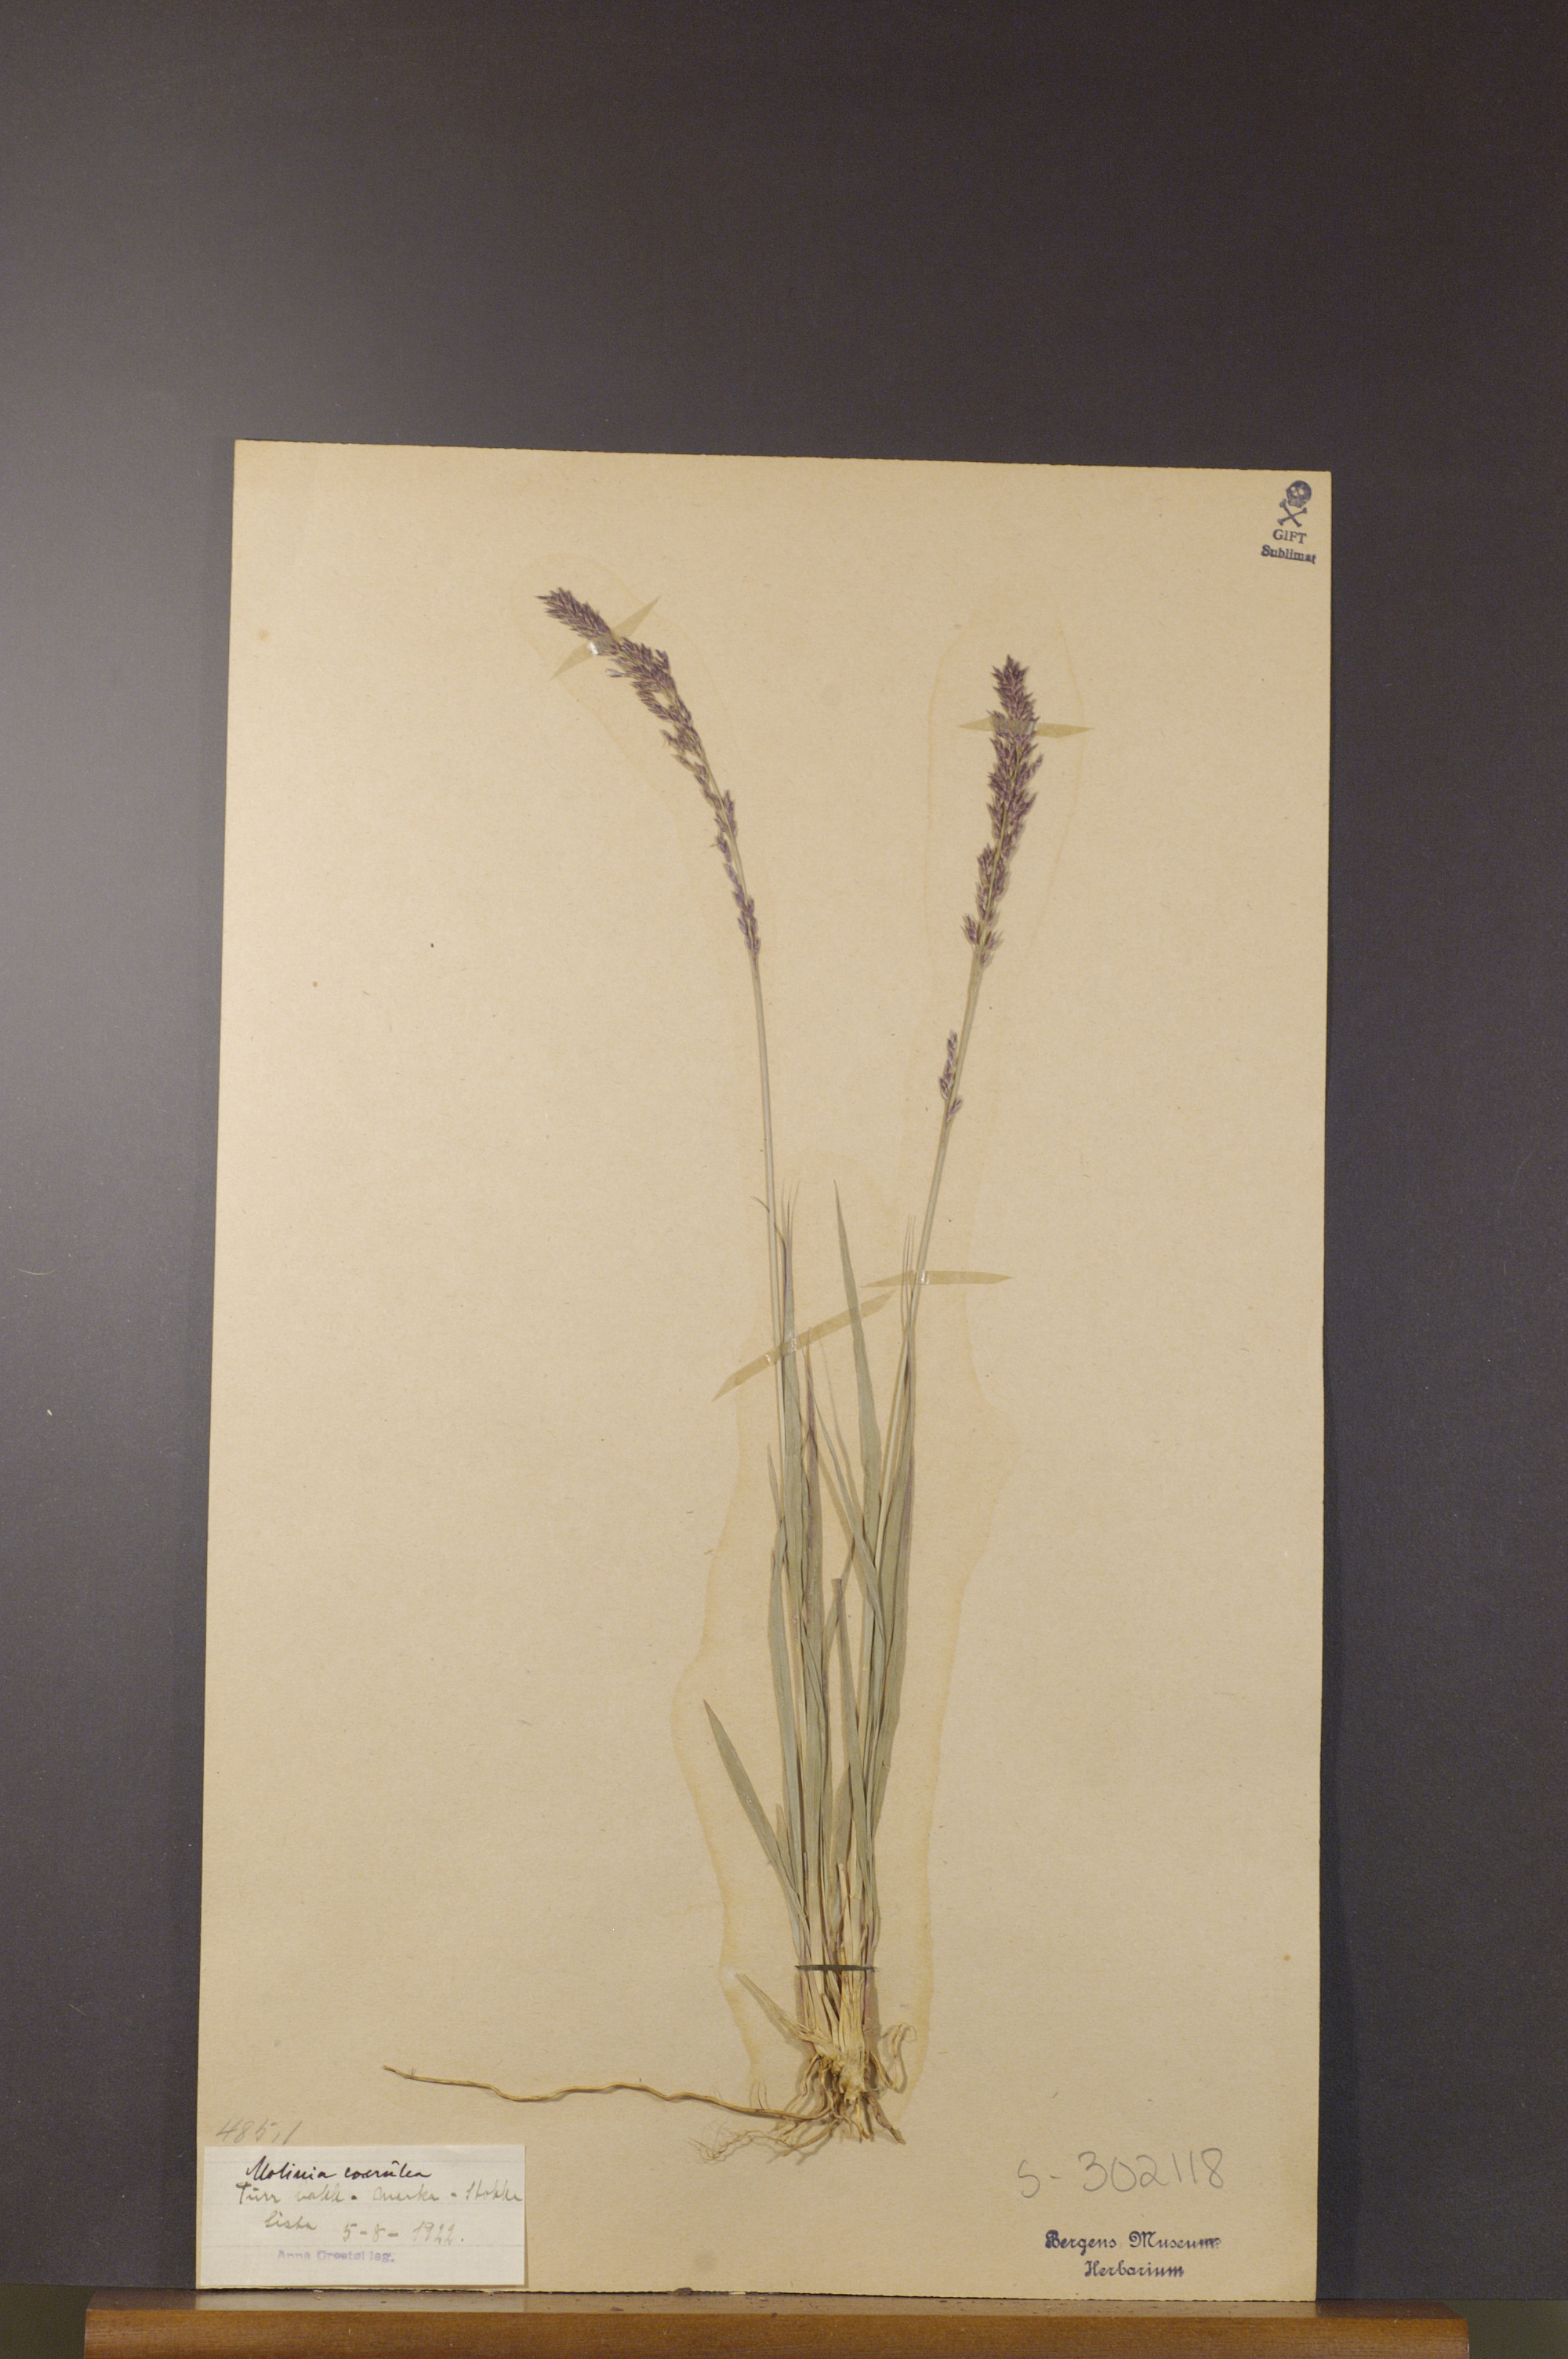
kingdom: Plantae
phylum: Tracheophyta
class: Liliopsida
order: Poales
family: Poaceae
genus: Molinia
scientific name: Molinia caerulea
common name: Purple moor-grass
